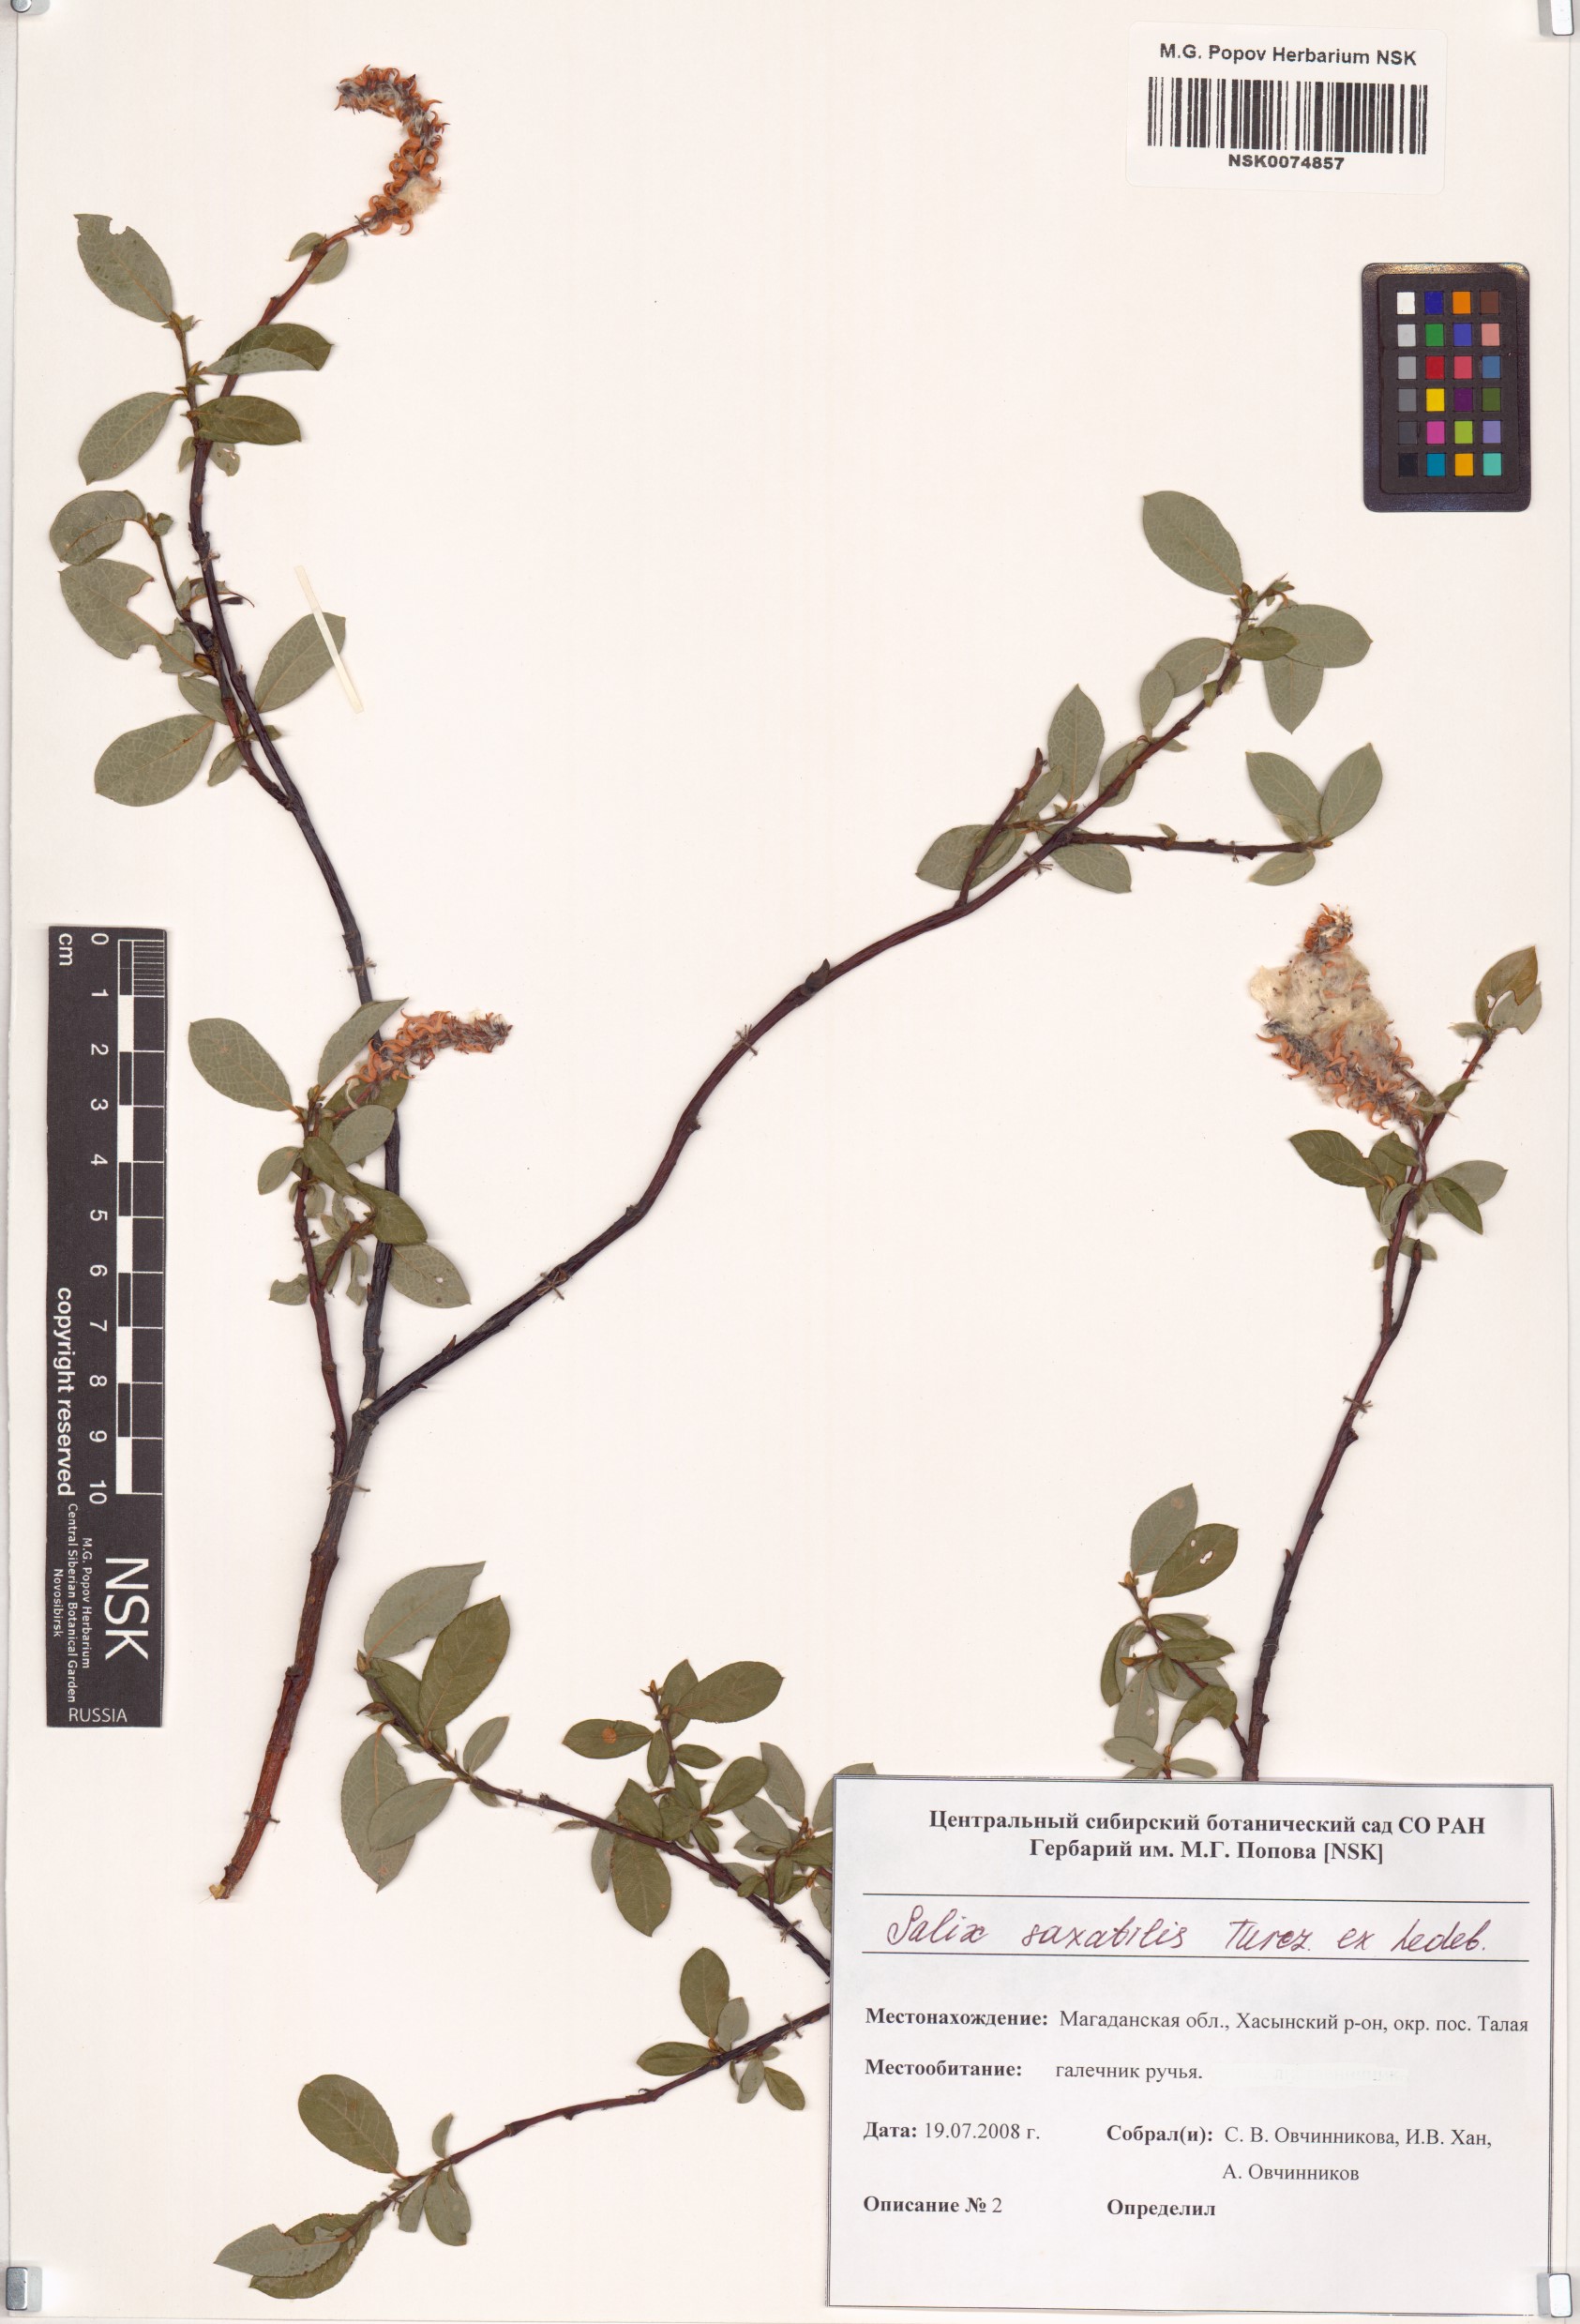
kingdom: Plantae
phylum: Tracheophyta
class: Magnoliopsida
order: Malpighiales
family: Salicaceae
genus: Salix
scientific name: Salix saxatilis
